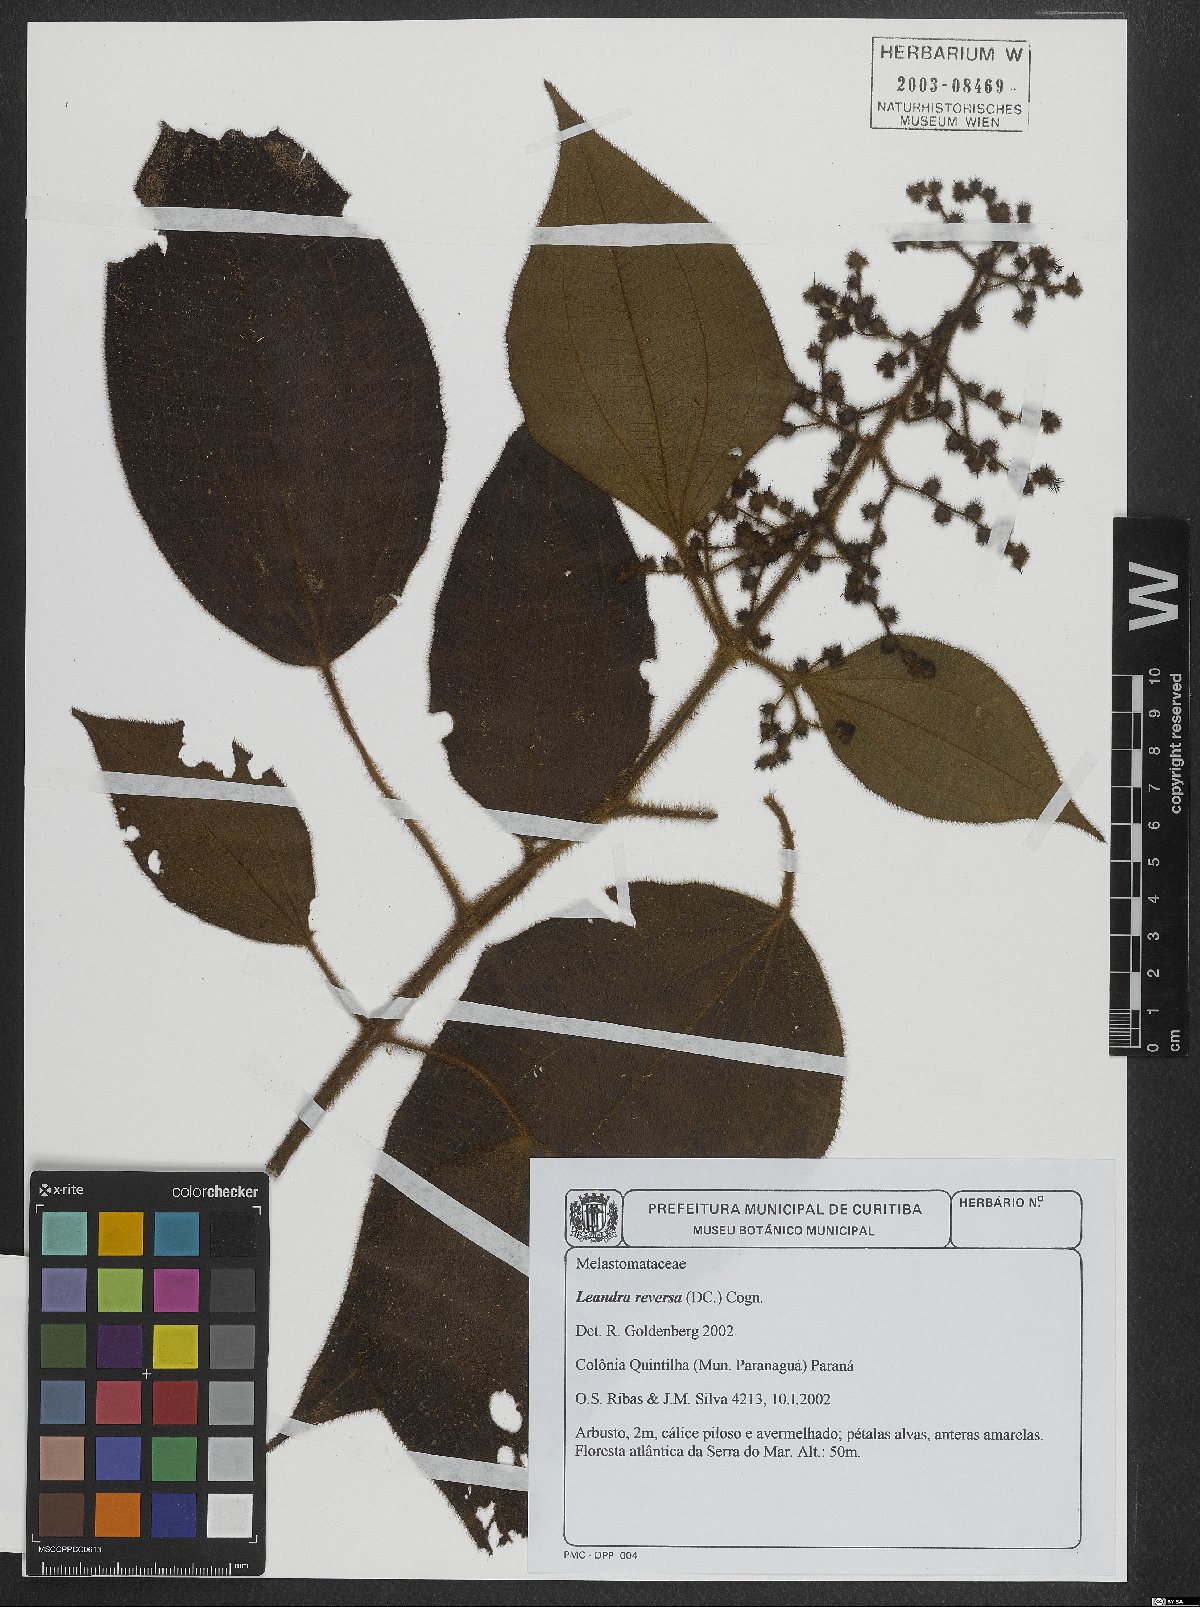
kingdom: Plantae
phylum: Tracheophyta
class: Magnoliopsida
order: Myrtales
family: Melastomataceae
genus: Miconia
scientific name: Miconia reversa
